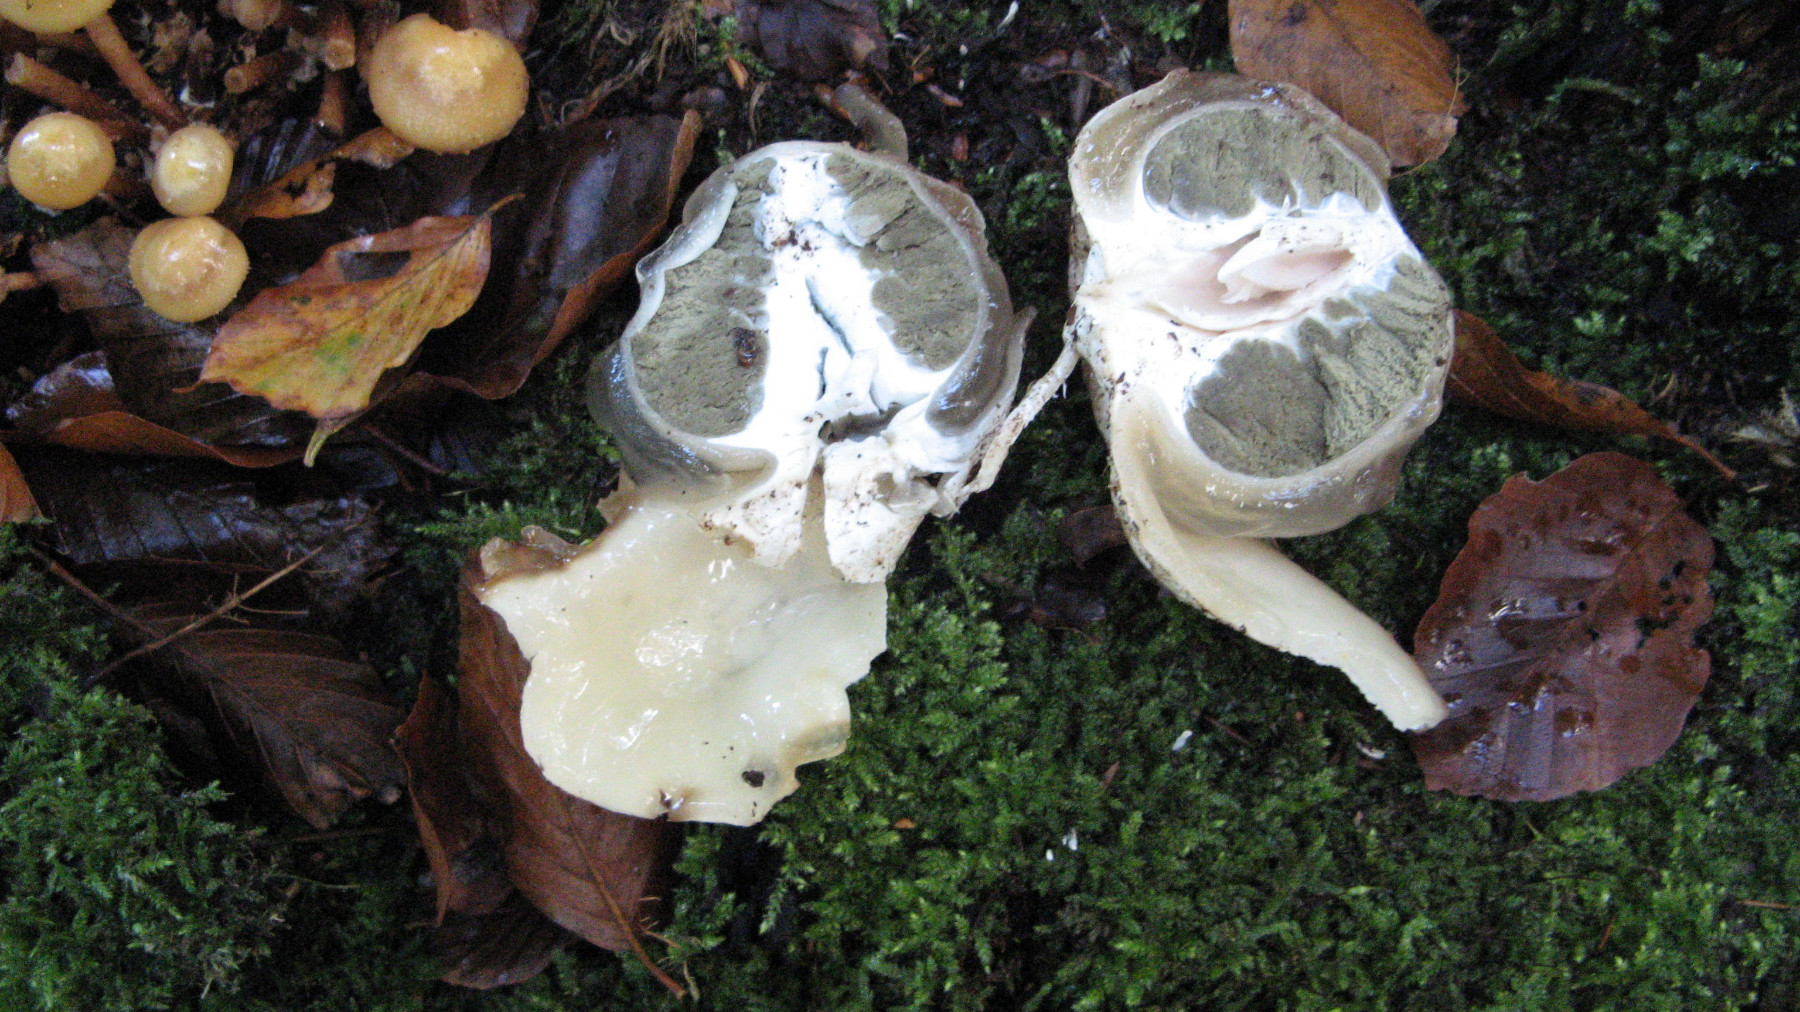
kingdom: Fungi
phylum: Basidiomycota
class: Agaricomycetes
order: Phallales
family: Phallaceae
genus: Phallus
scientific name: Phallus impudicus
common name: almindelig stinksvamp
